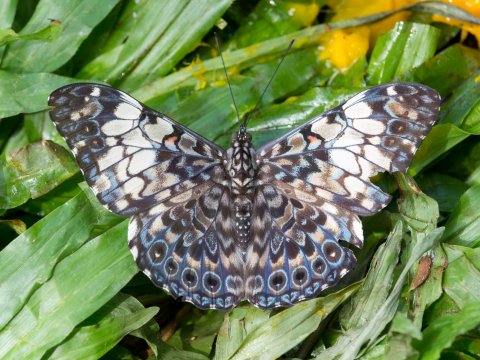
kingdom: Animalia
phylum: Arthropoda
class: Insecta
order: Lepidoptera
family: Nymphalidae
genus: Hamadryas
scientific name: Hamadryas fornax
